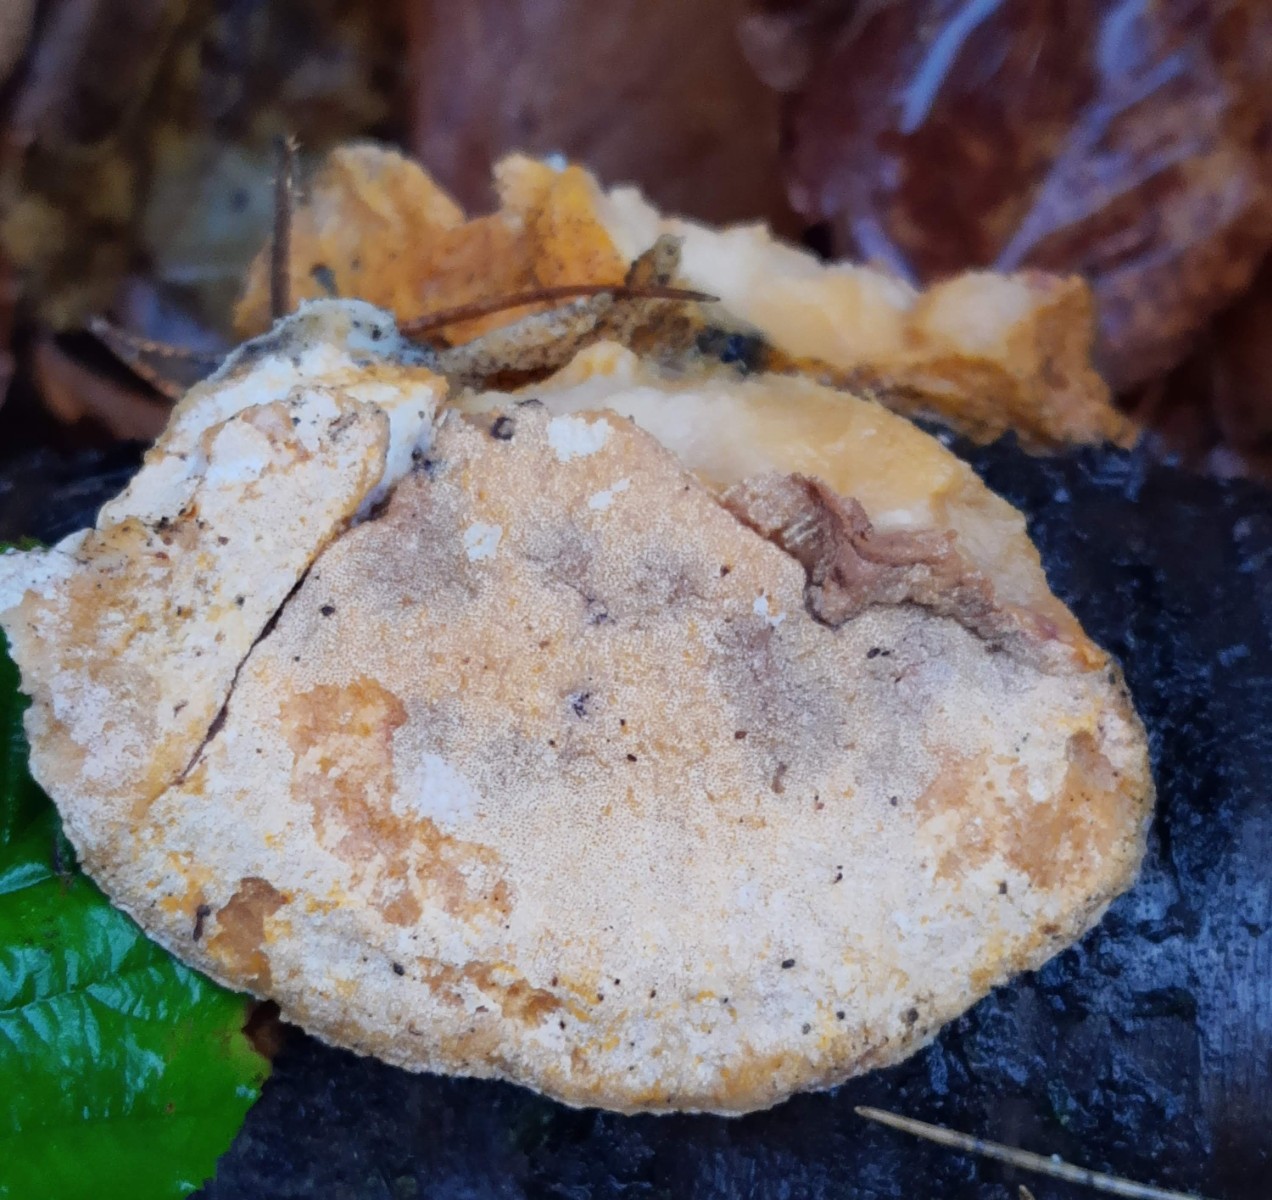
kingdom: Fungi
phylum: Ascomycota
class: Sordariomycetes
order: Hypocreales
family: Hypocreaceae
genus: Protocrea
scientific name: Protocrea pallida
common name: bleg kødkerne
